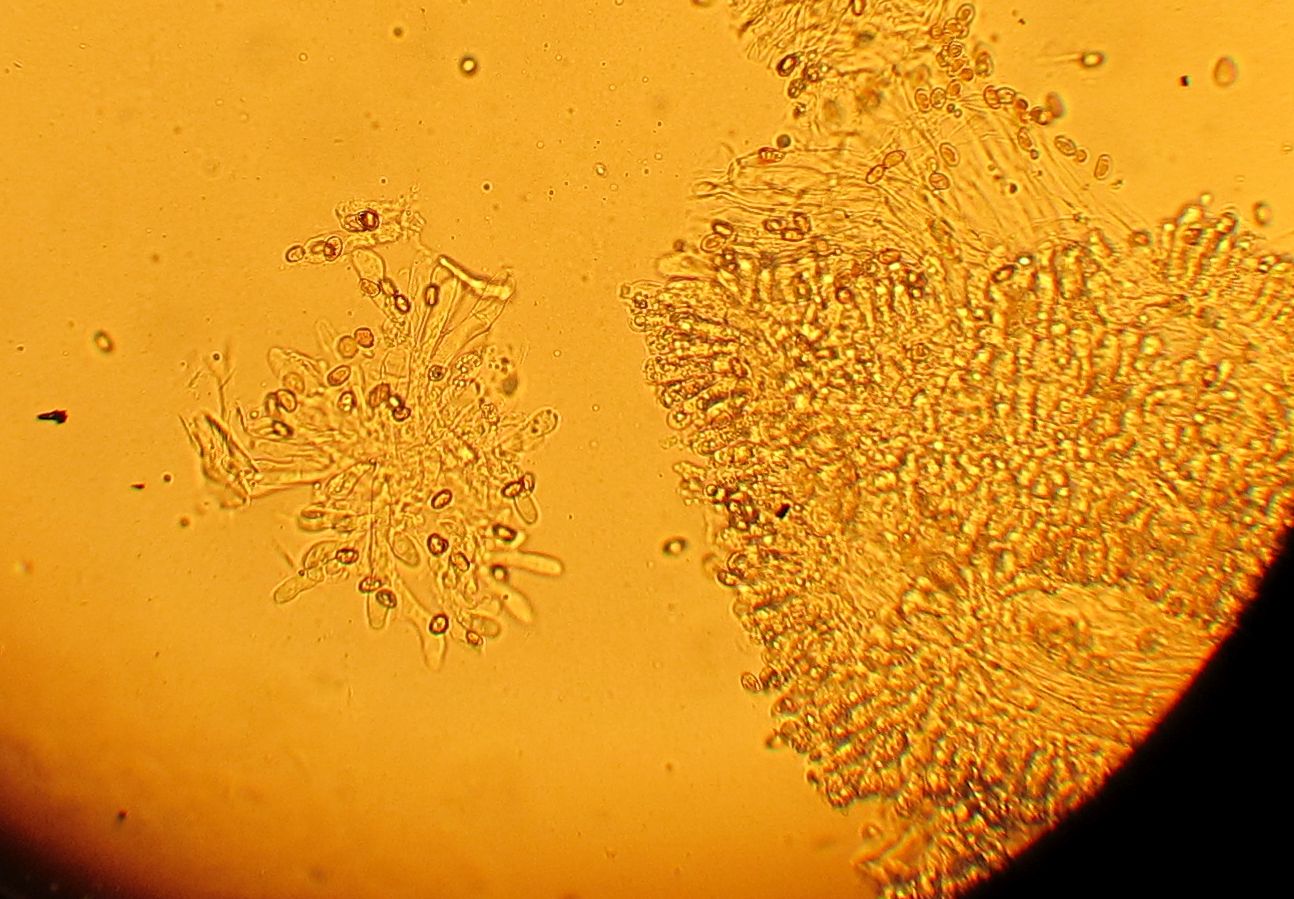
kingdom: Fungi
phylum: Basidiomycota
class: Agaricomycetes
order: Agaricales
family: Inocybaceae
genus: Inocybe
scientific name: Inocybe
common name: trævlhat
